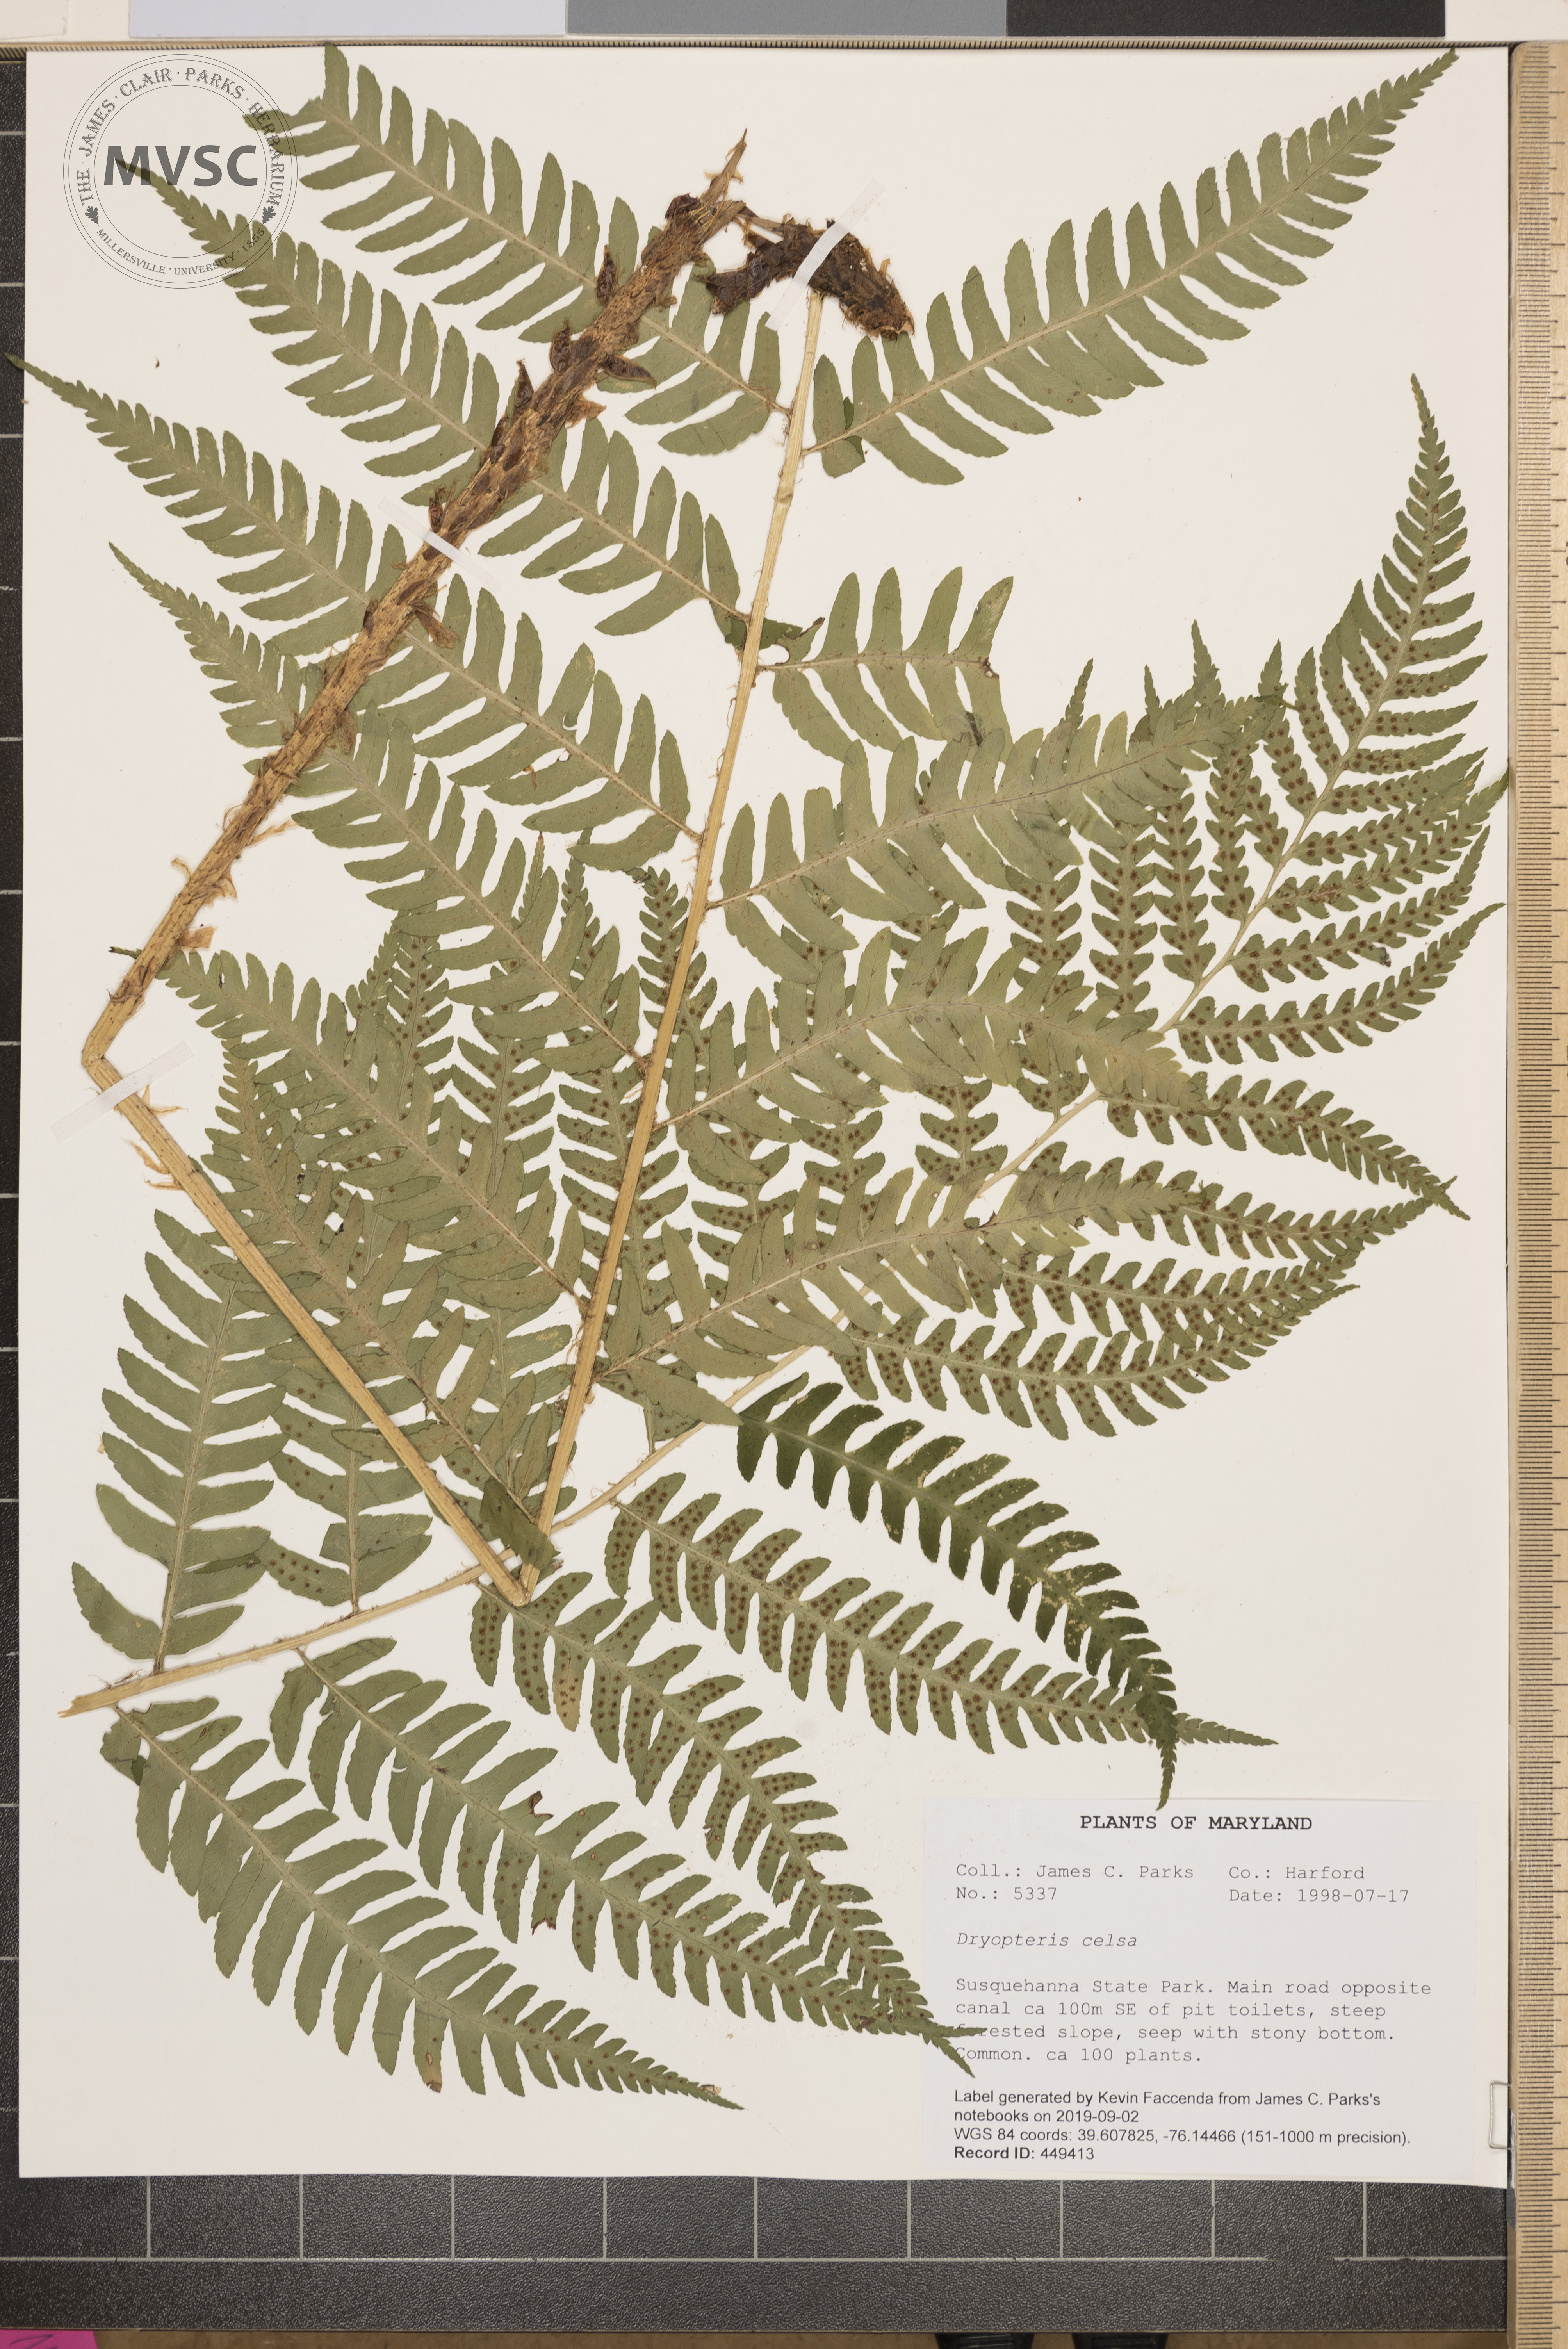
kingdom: Plantae
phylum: Tracheophyta
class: Polypodiopsida
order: Polypodiales
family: Dryopteridaceae
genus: Dryopteris
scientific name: Dryopteris celsa
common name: Log fern
